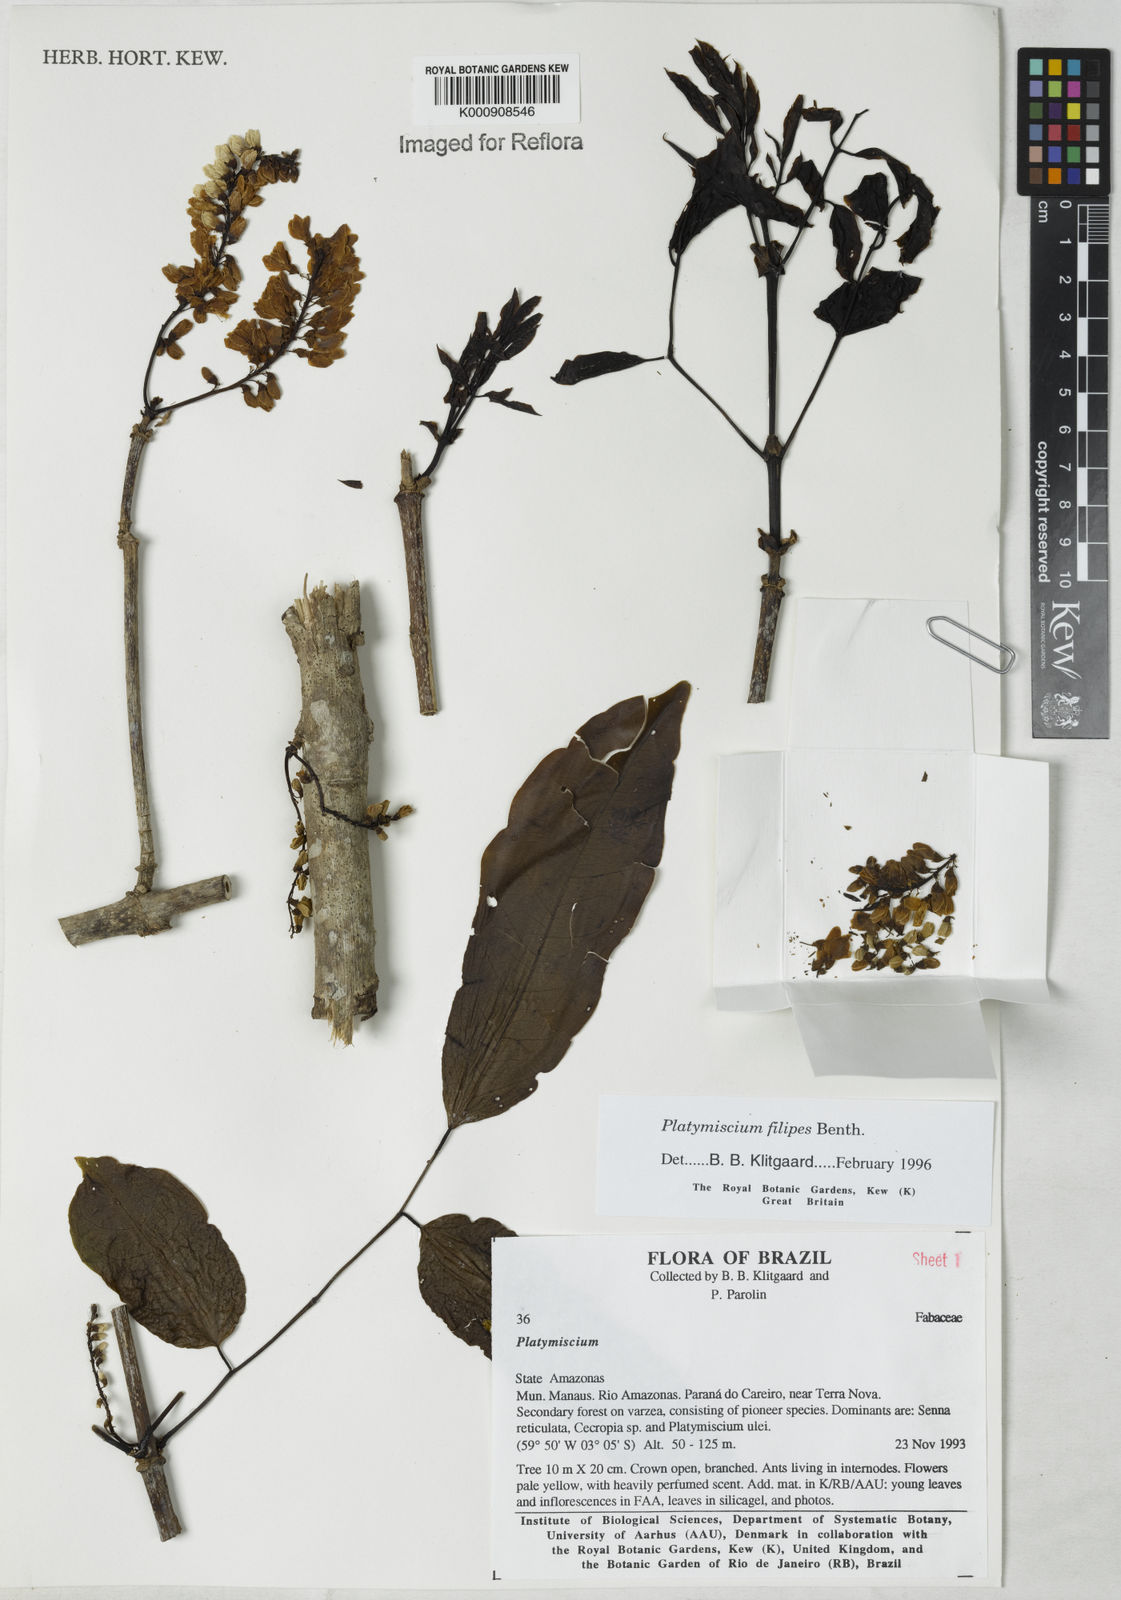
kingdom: Plantae
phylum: Tracheophyta
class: Magnoliopsida
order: Fabales
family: Fabaceae
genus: Platymiscium
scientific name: Platymiscium filipes
